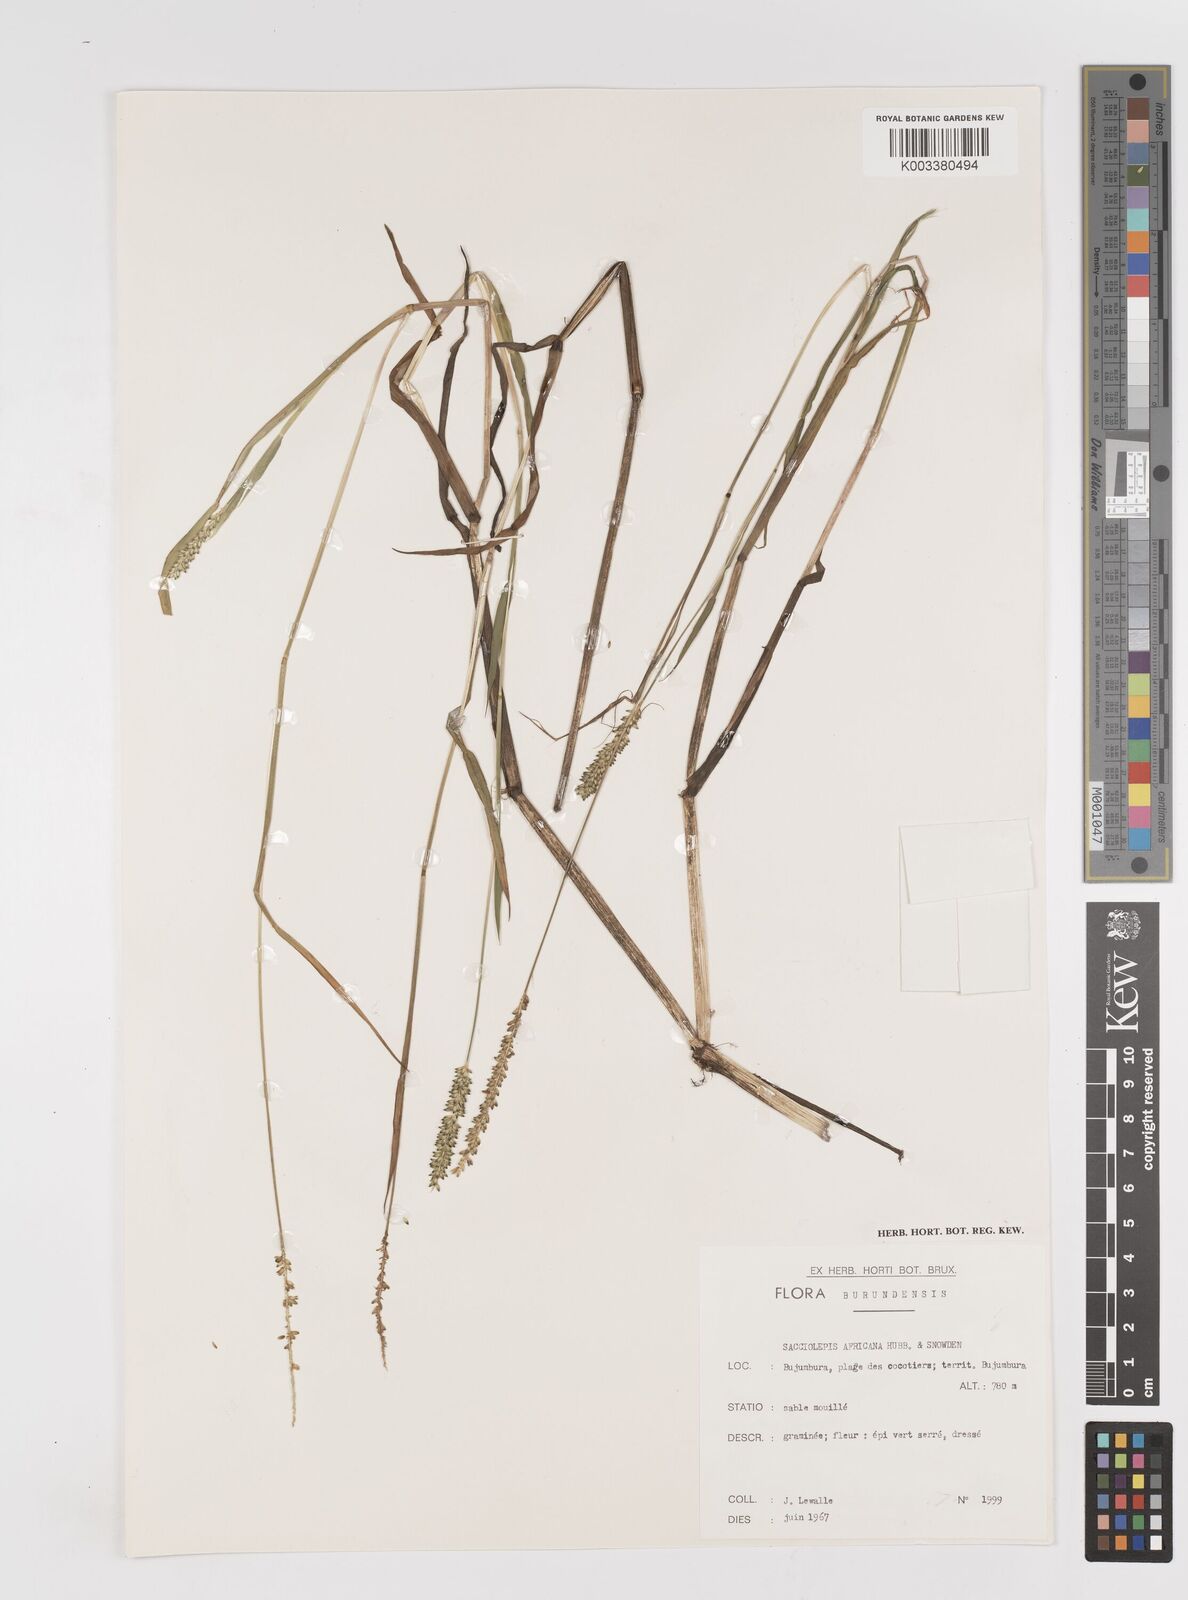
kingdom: Plantae
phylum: Tracheophyta
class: Liliopsida
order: Poales
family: Poaceae
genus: Sacciolepis
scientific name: Sacciolepis africana
